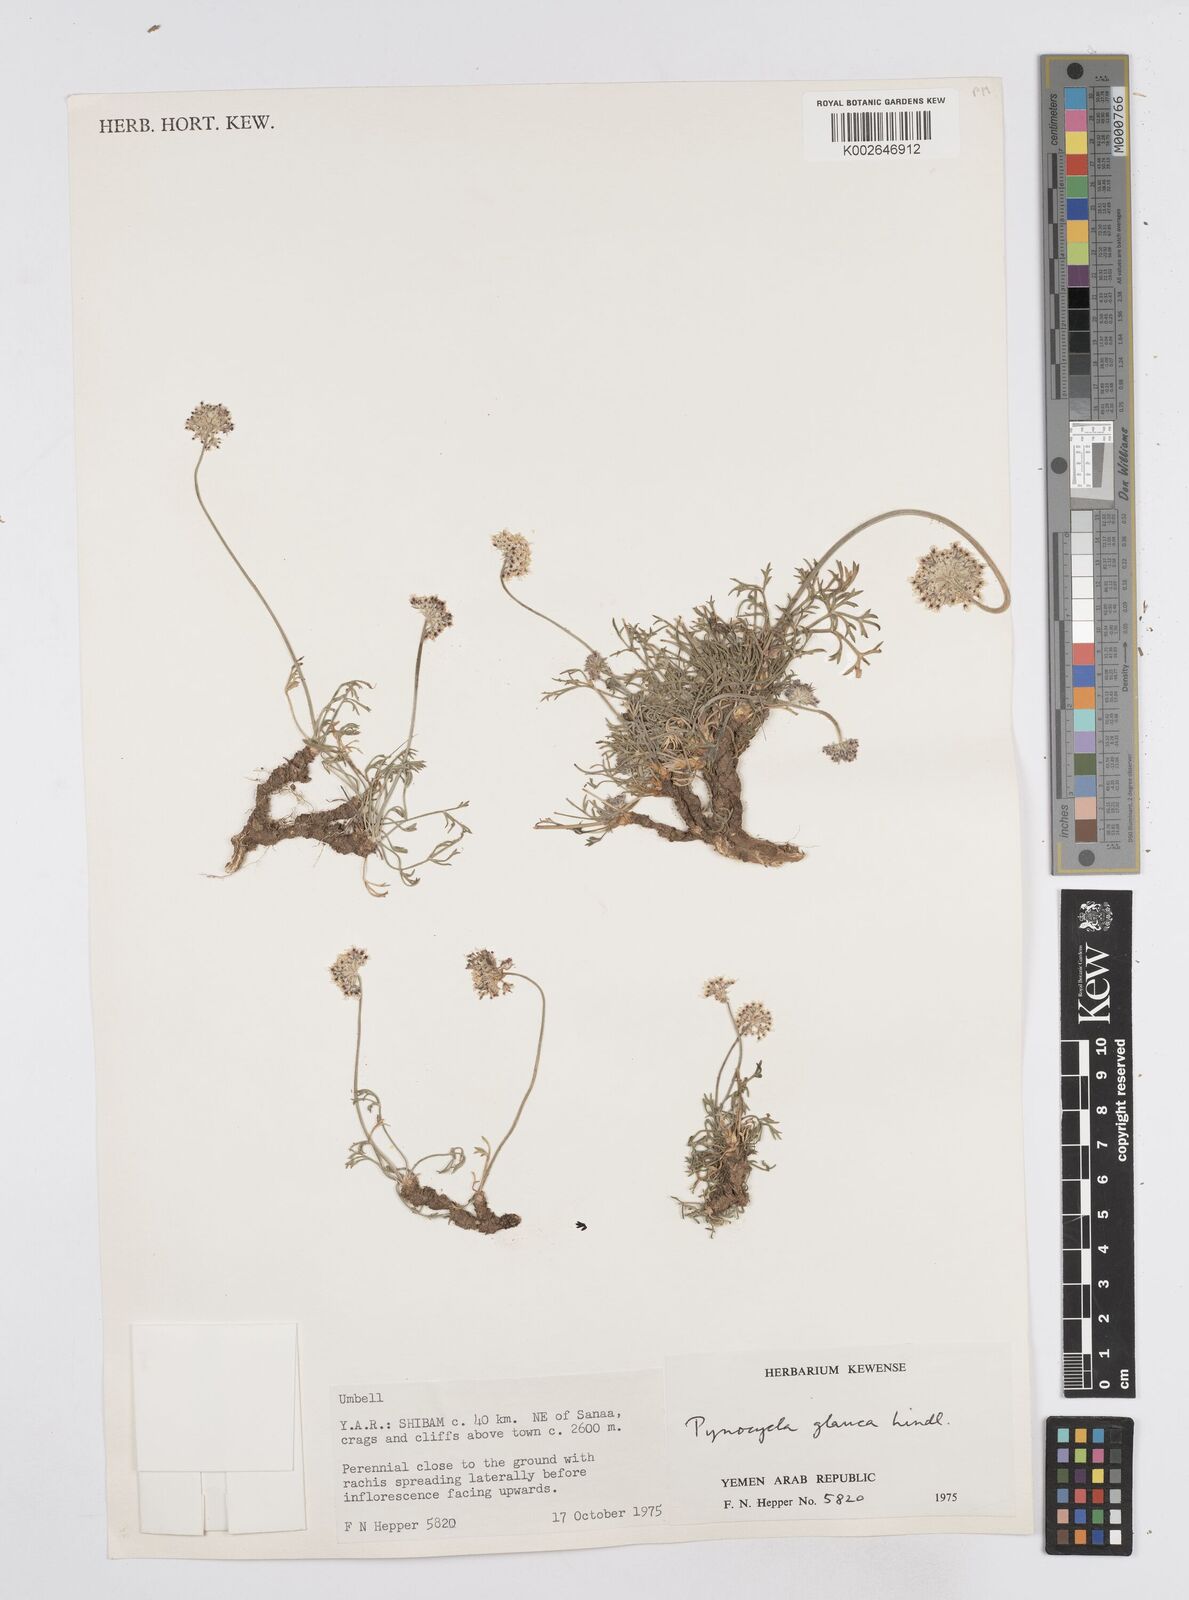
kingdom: Plantae
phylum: Tracheophyta
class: Magnoliopsida
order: Apiales
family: Apiaceae
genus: Pycnocycla
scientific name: Pycnocycla glauca
